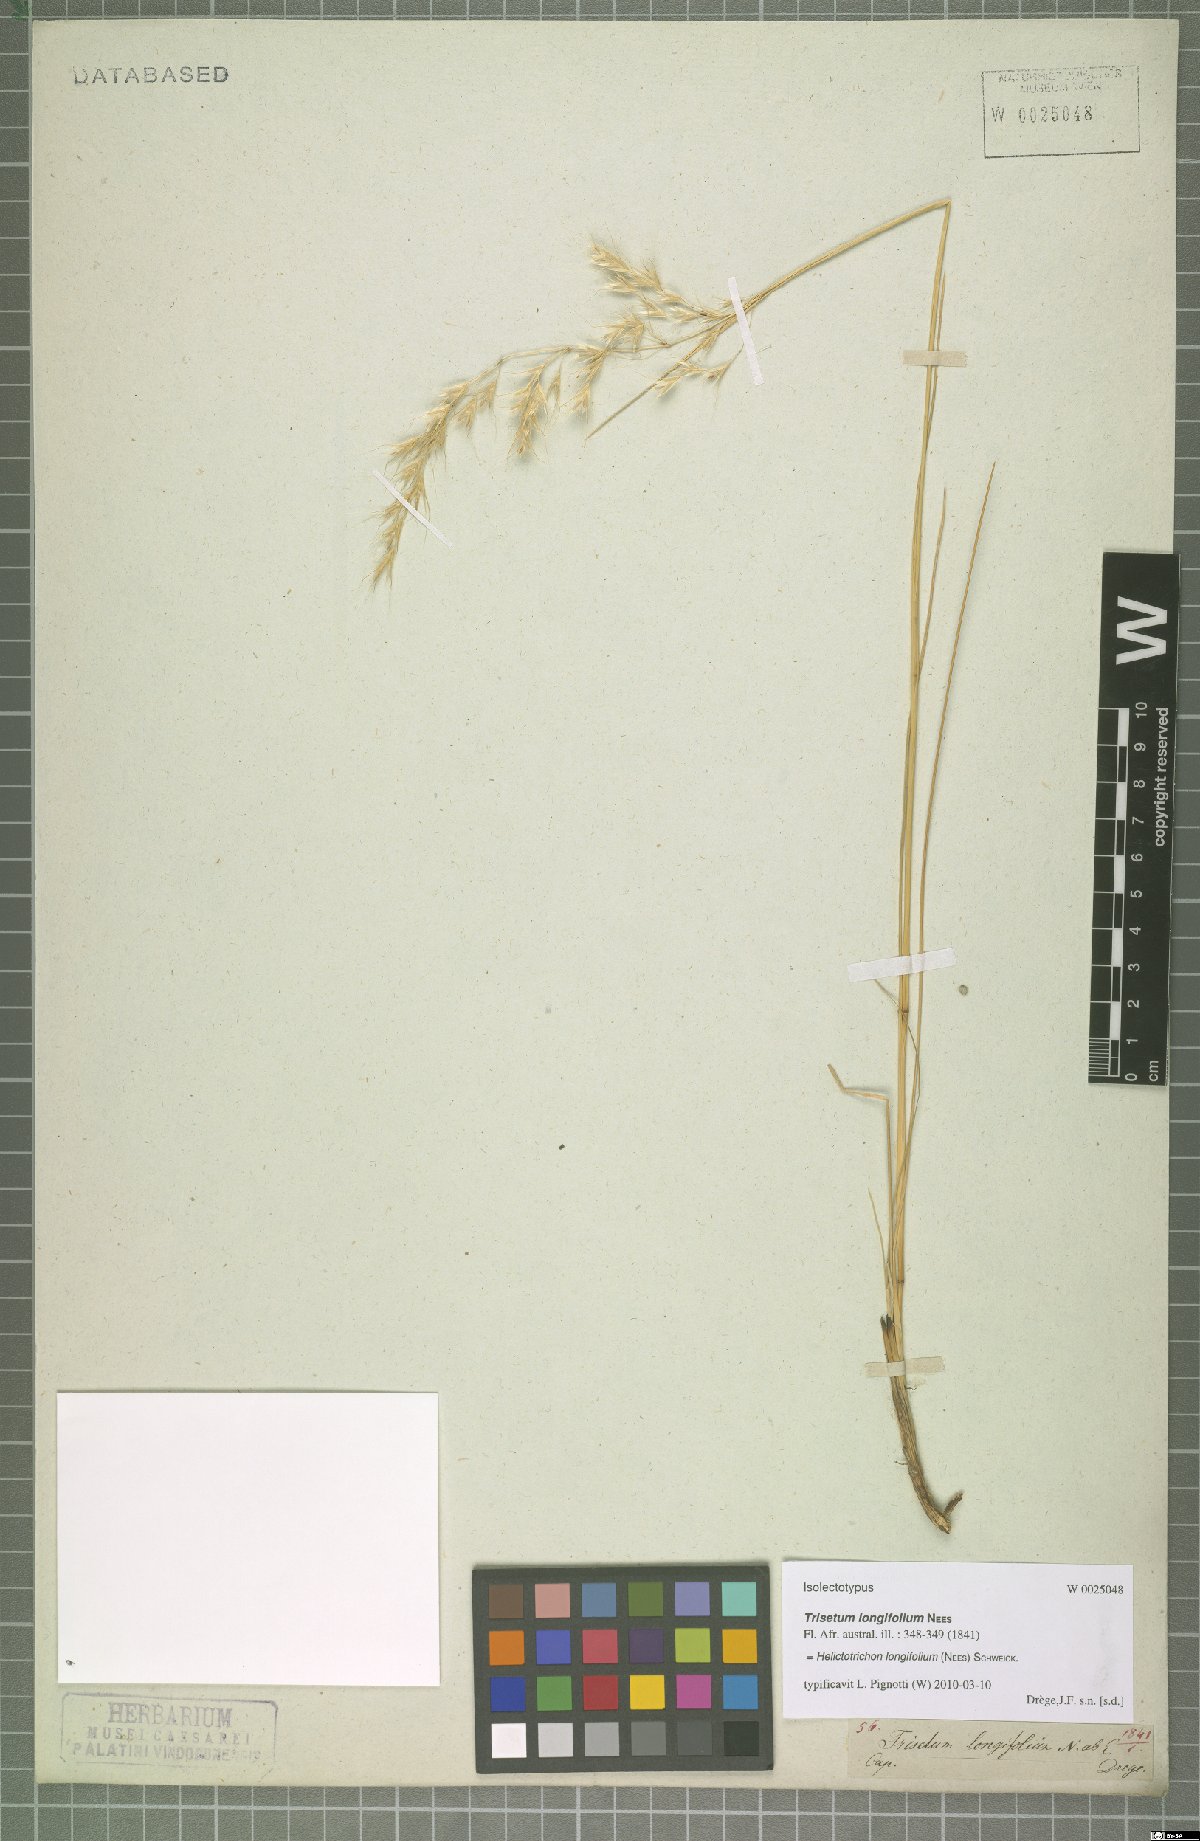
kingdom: Plantae
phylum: Tracheophyta
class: Liliopsida
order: Poales
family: Poaceae
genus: Trisetopsis
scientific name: Trisetopsis longifolia
